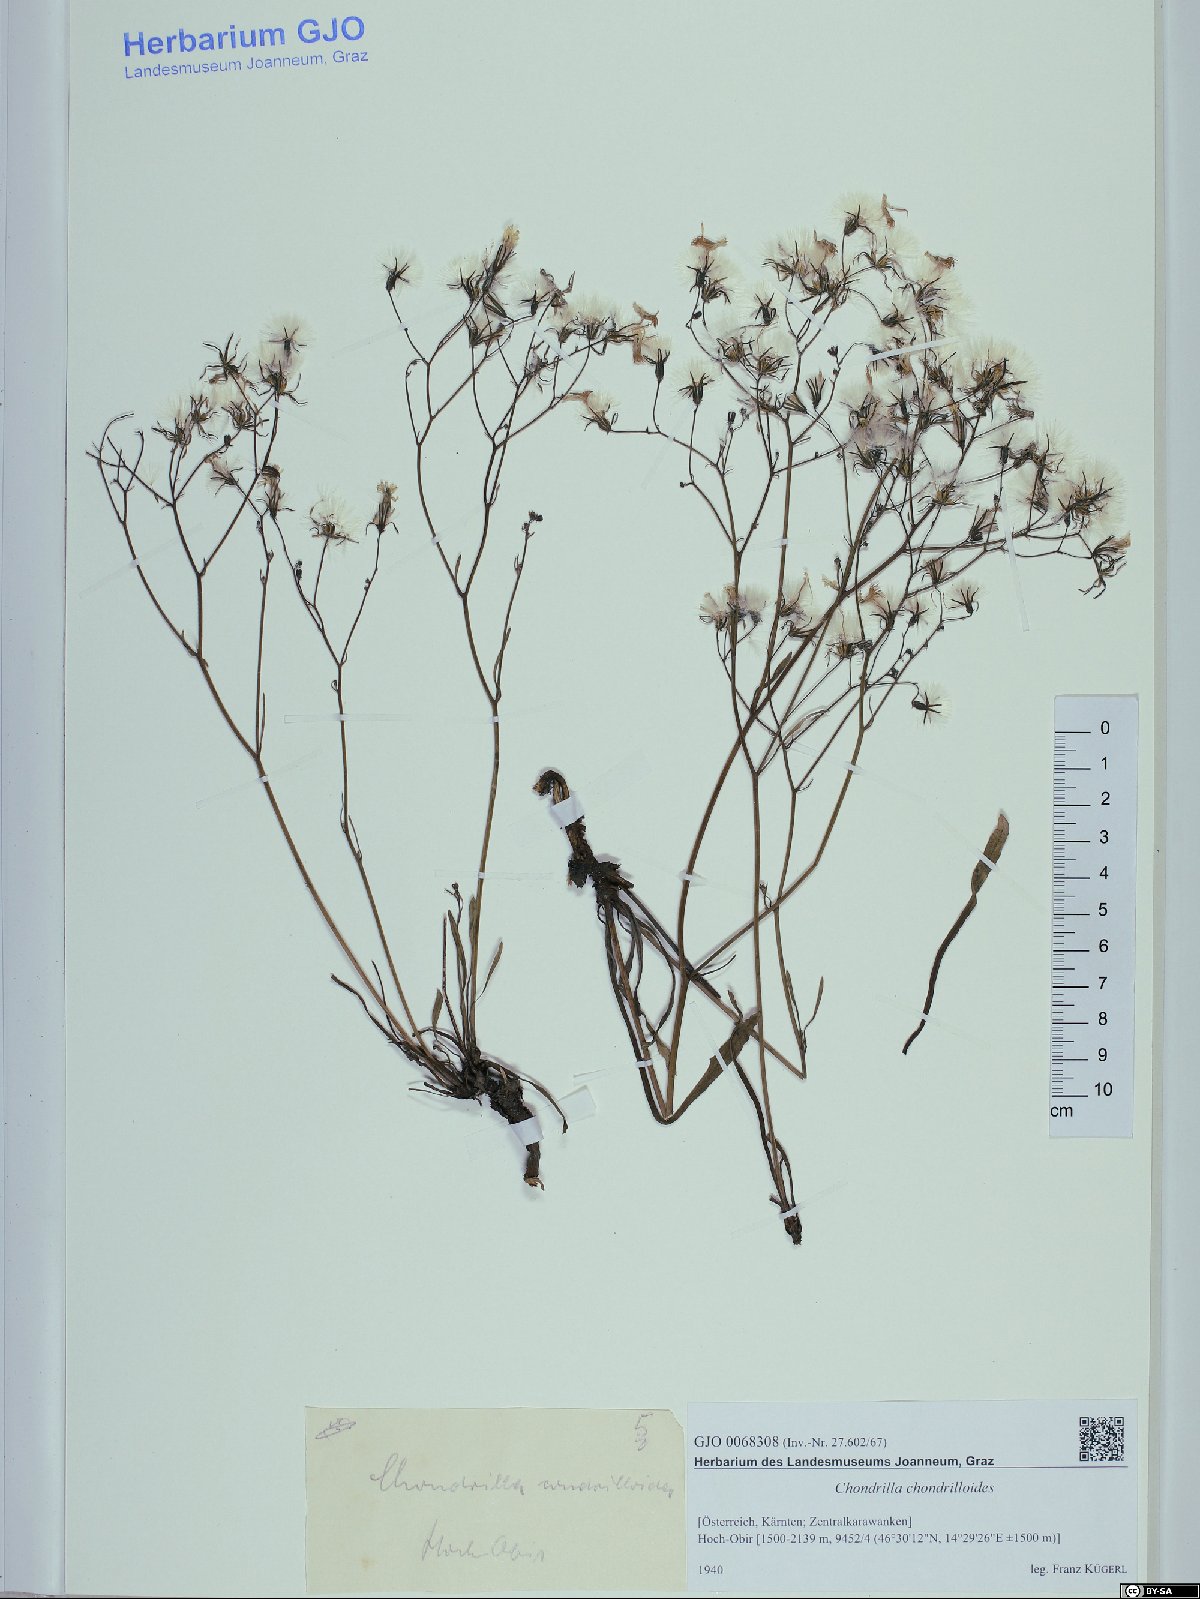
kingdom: Plantae
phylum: Tracheophyta
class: Magnoliopsida
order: Asterales
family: Asteraceae
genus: Chondrilla
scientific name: Chondrilla chondrilloides
